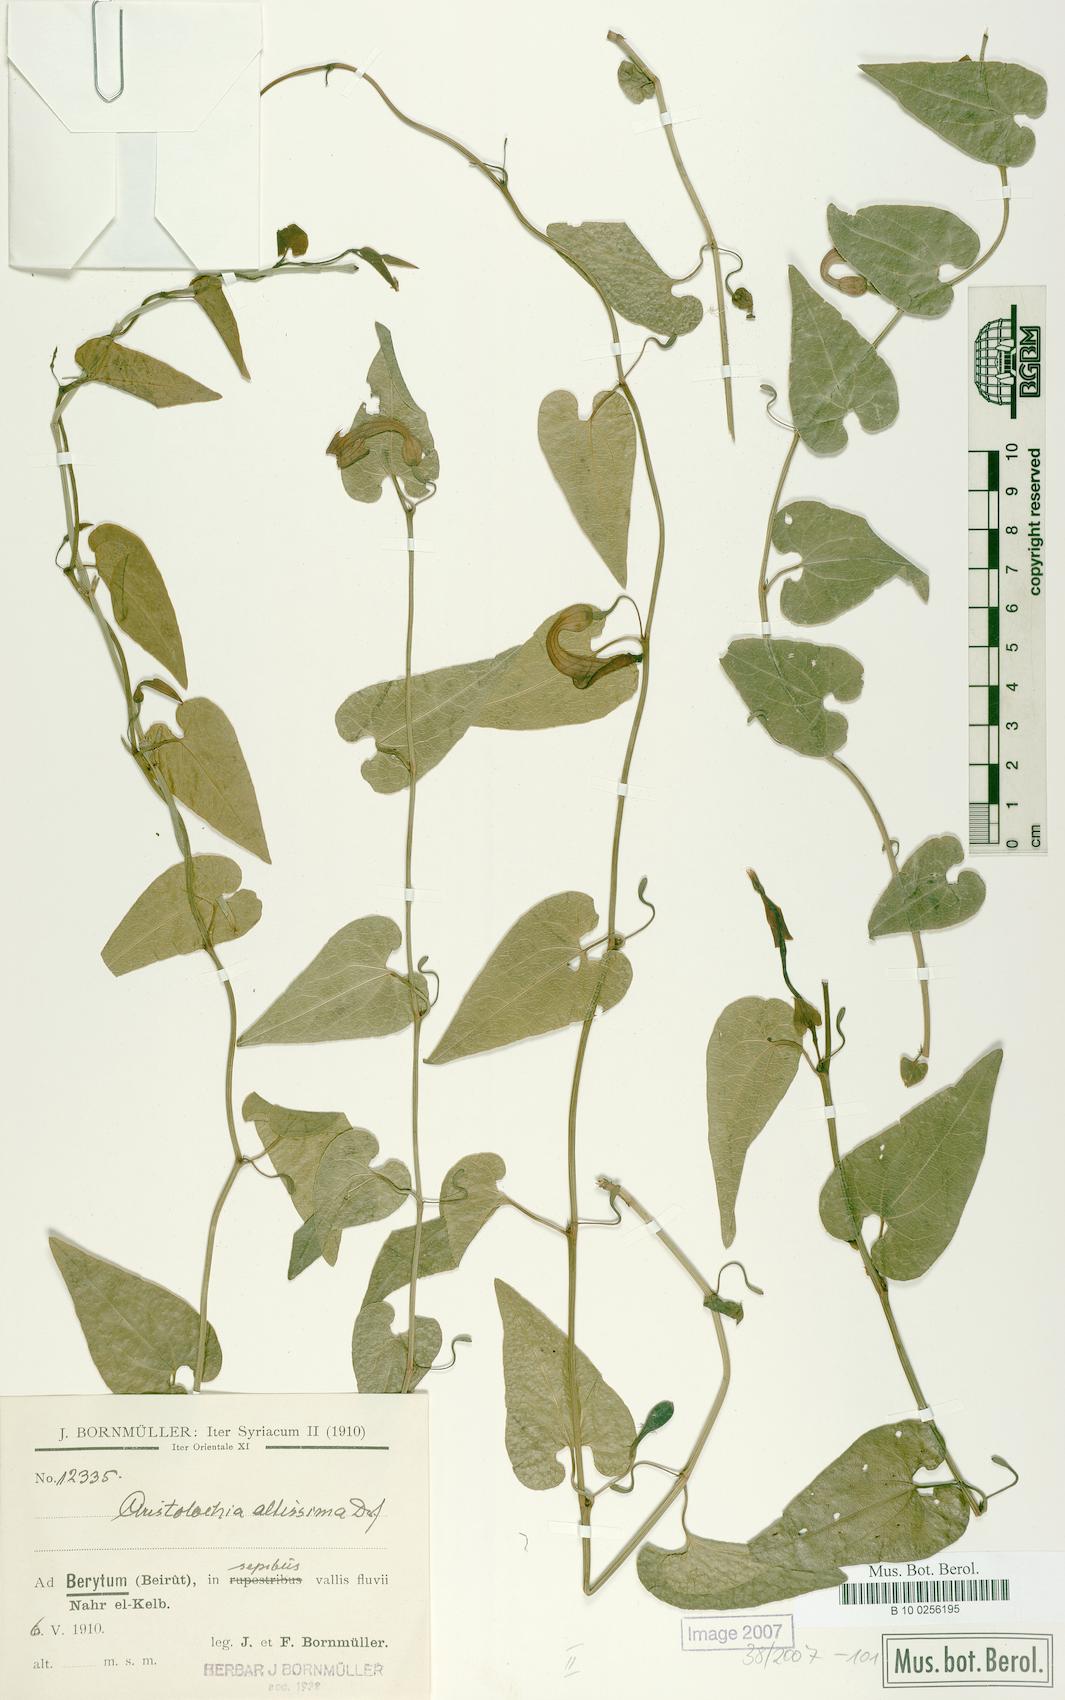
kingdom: Plantae
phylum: Tracheophyta
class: Magnoliopsida
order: Piperales
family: Aristolochiaceae
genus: Aristolochia
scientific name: Aristolochia sempervirens
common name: Long birthwort
